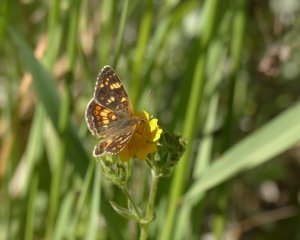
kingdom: Animalia
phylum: Arthropoda
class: Insecta
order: Lepidoptera
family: Nymphalidae
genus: Phyciodes
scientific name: Phyciodes tharos
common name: Field Crescent
